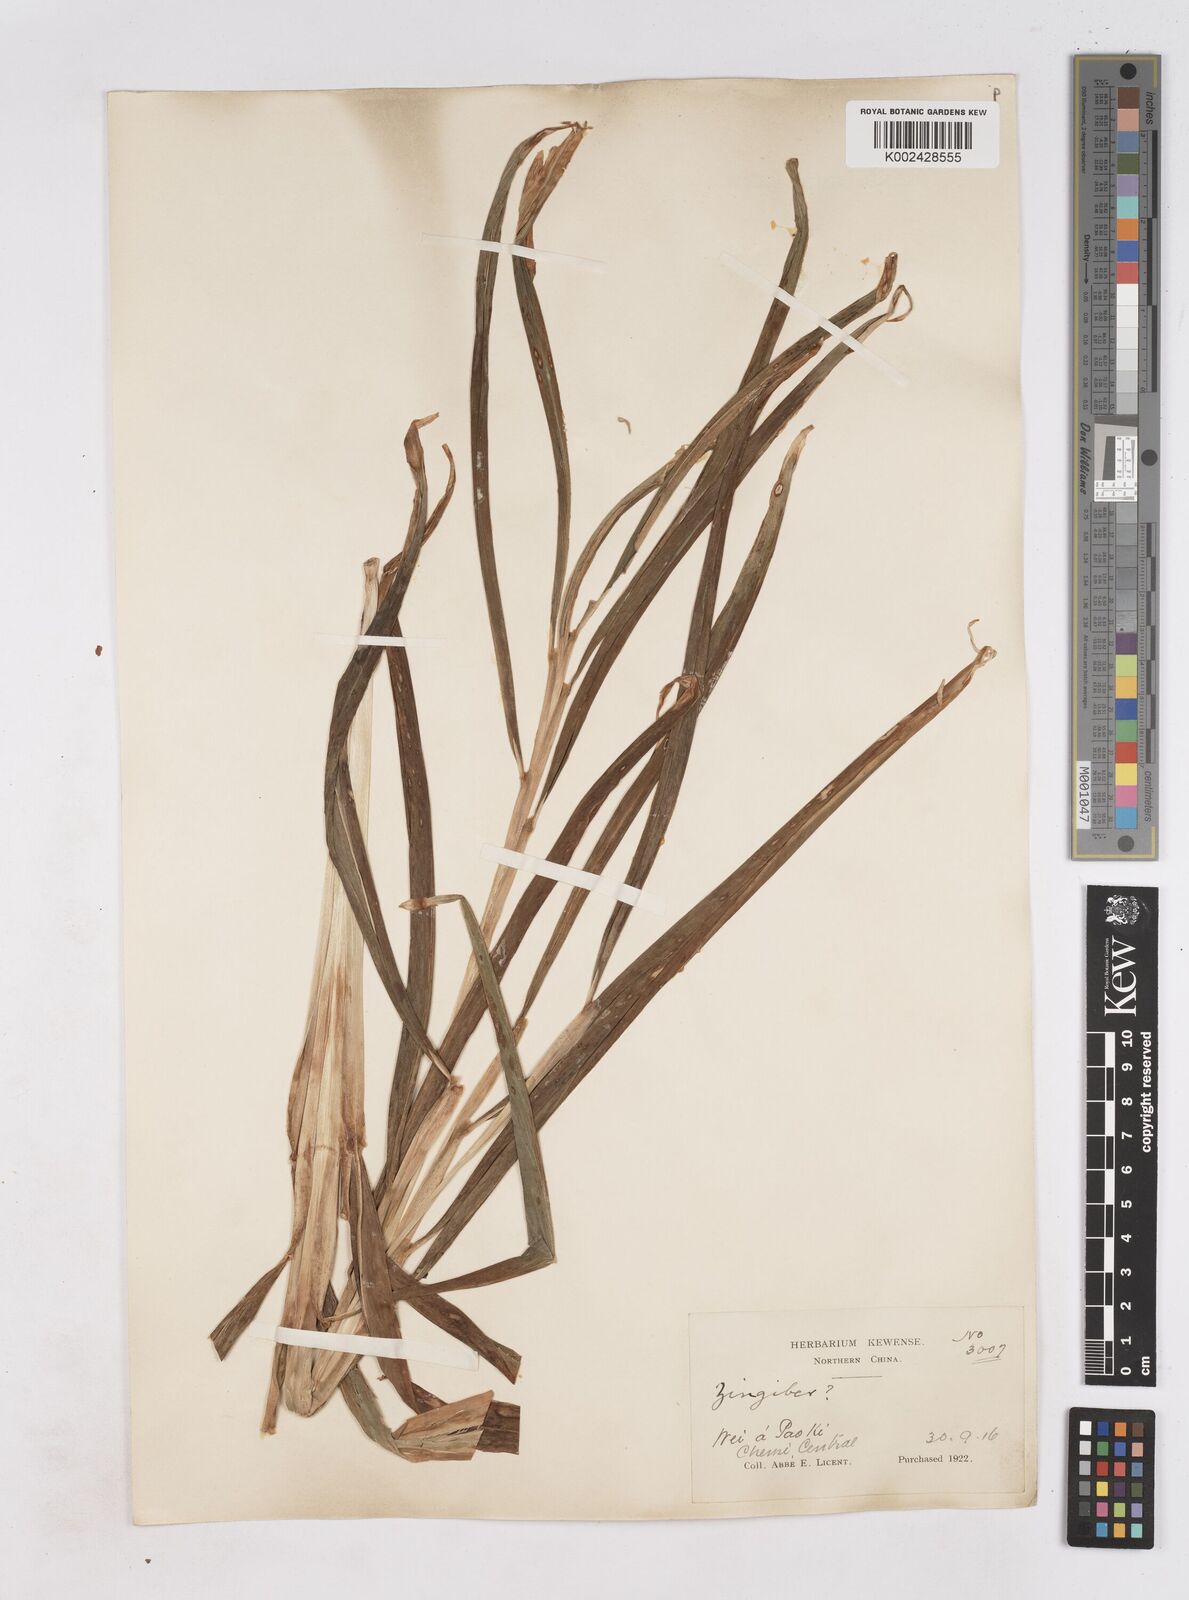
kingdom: Plantae
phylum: Tracheophyta
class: Liliopsida
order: Zingiberales
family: Zingiberaceae
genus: Zingiber
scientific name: Zingiber
